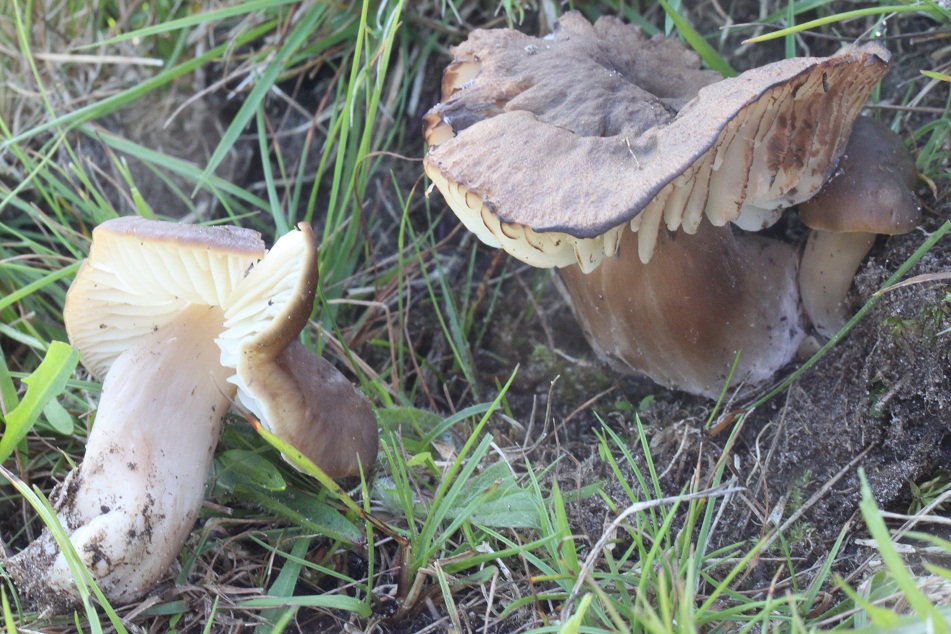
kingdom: Fungi
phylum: Basidiomycota
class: Agaricomycetes
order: Agaricales
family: Hygrophoraceae
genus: Hygrocybe
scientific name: Hygrocybe ingrata
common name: Jensens vokshat
